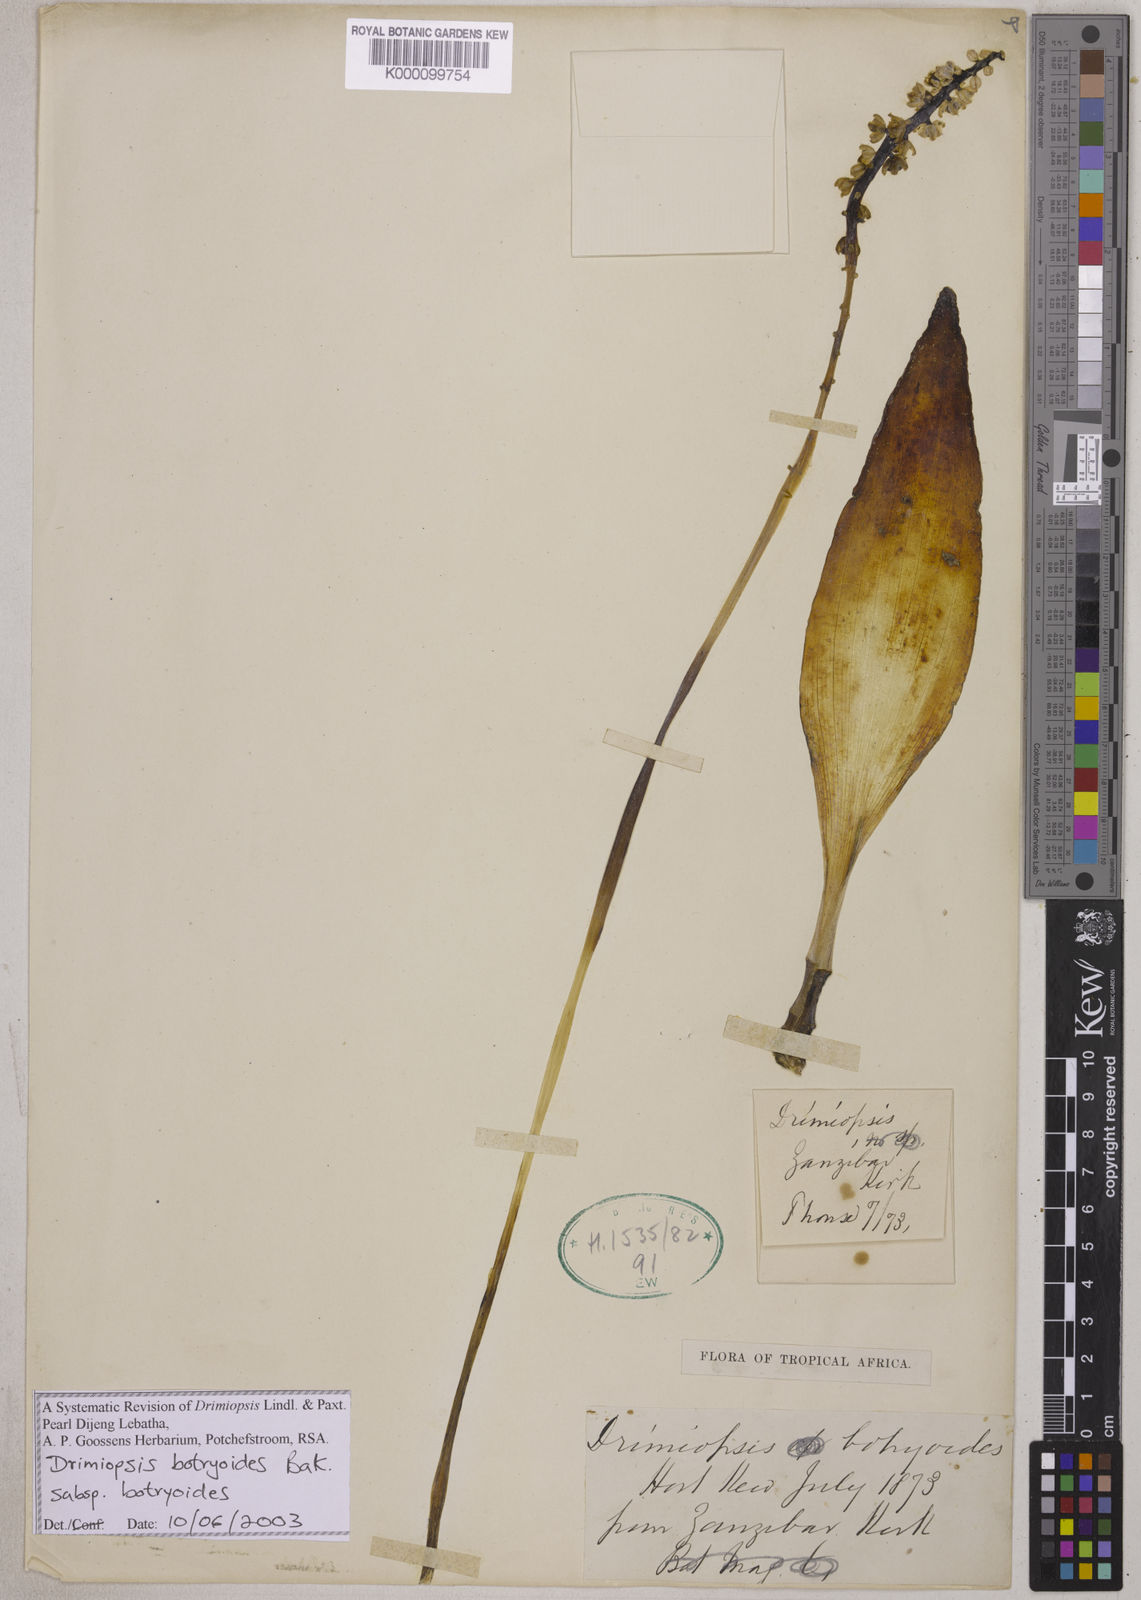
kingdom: Plantae
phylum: Tracheophyta
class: Liliopsida
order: Asparagales
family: Asparagaceae
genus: Drimiopsis
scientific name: Drimiopsis botryoides
